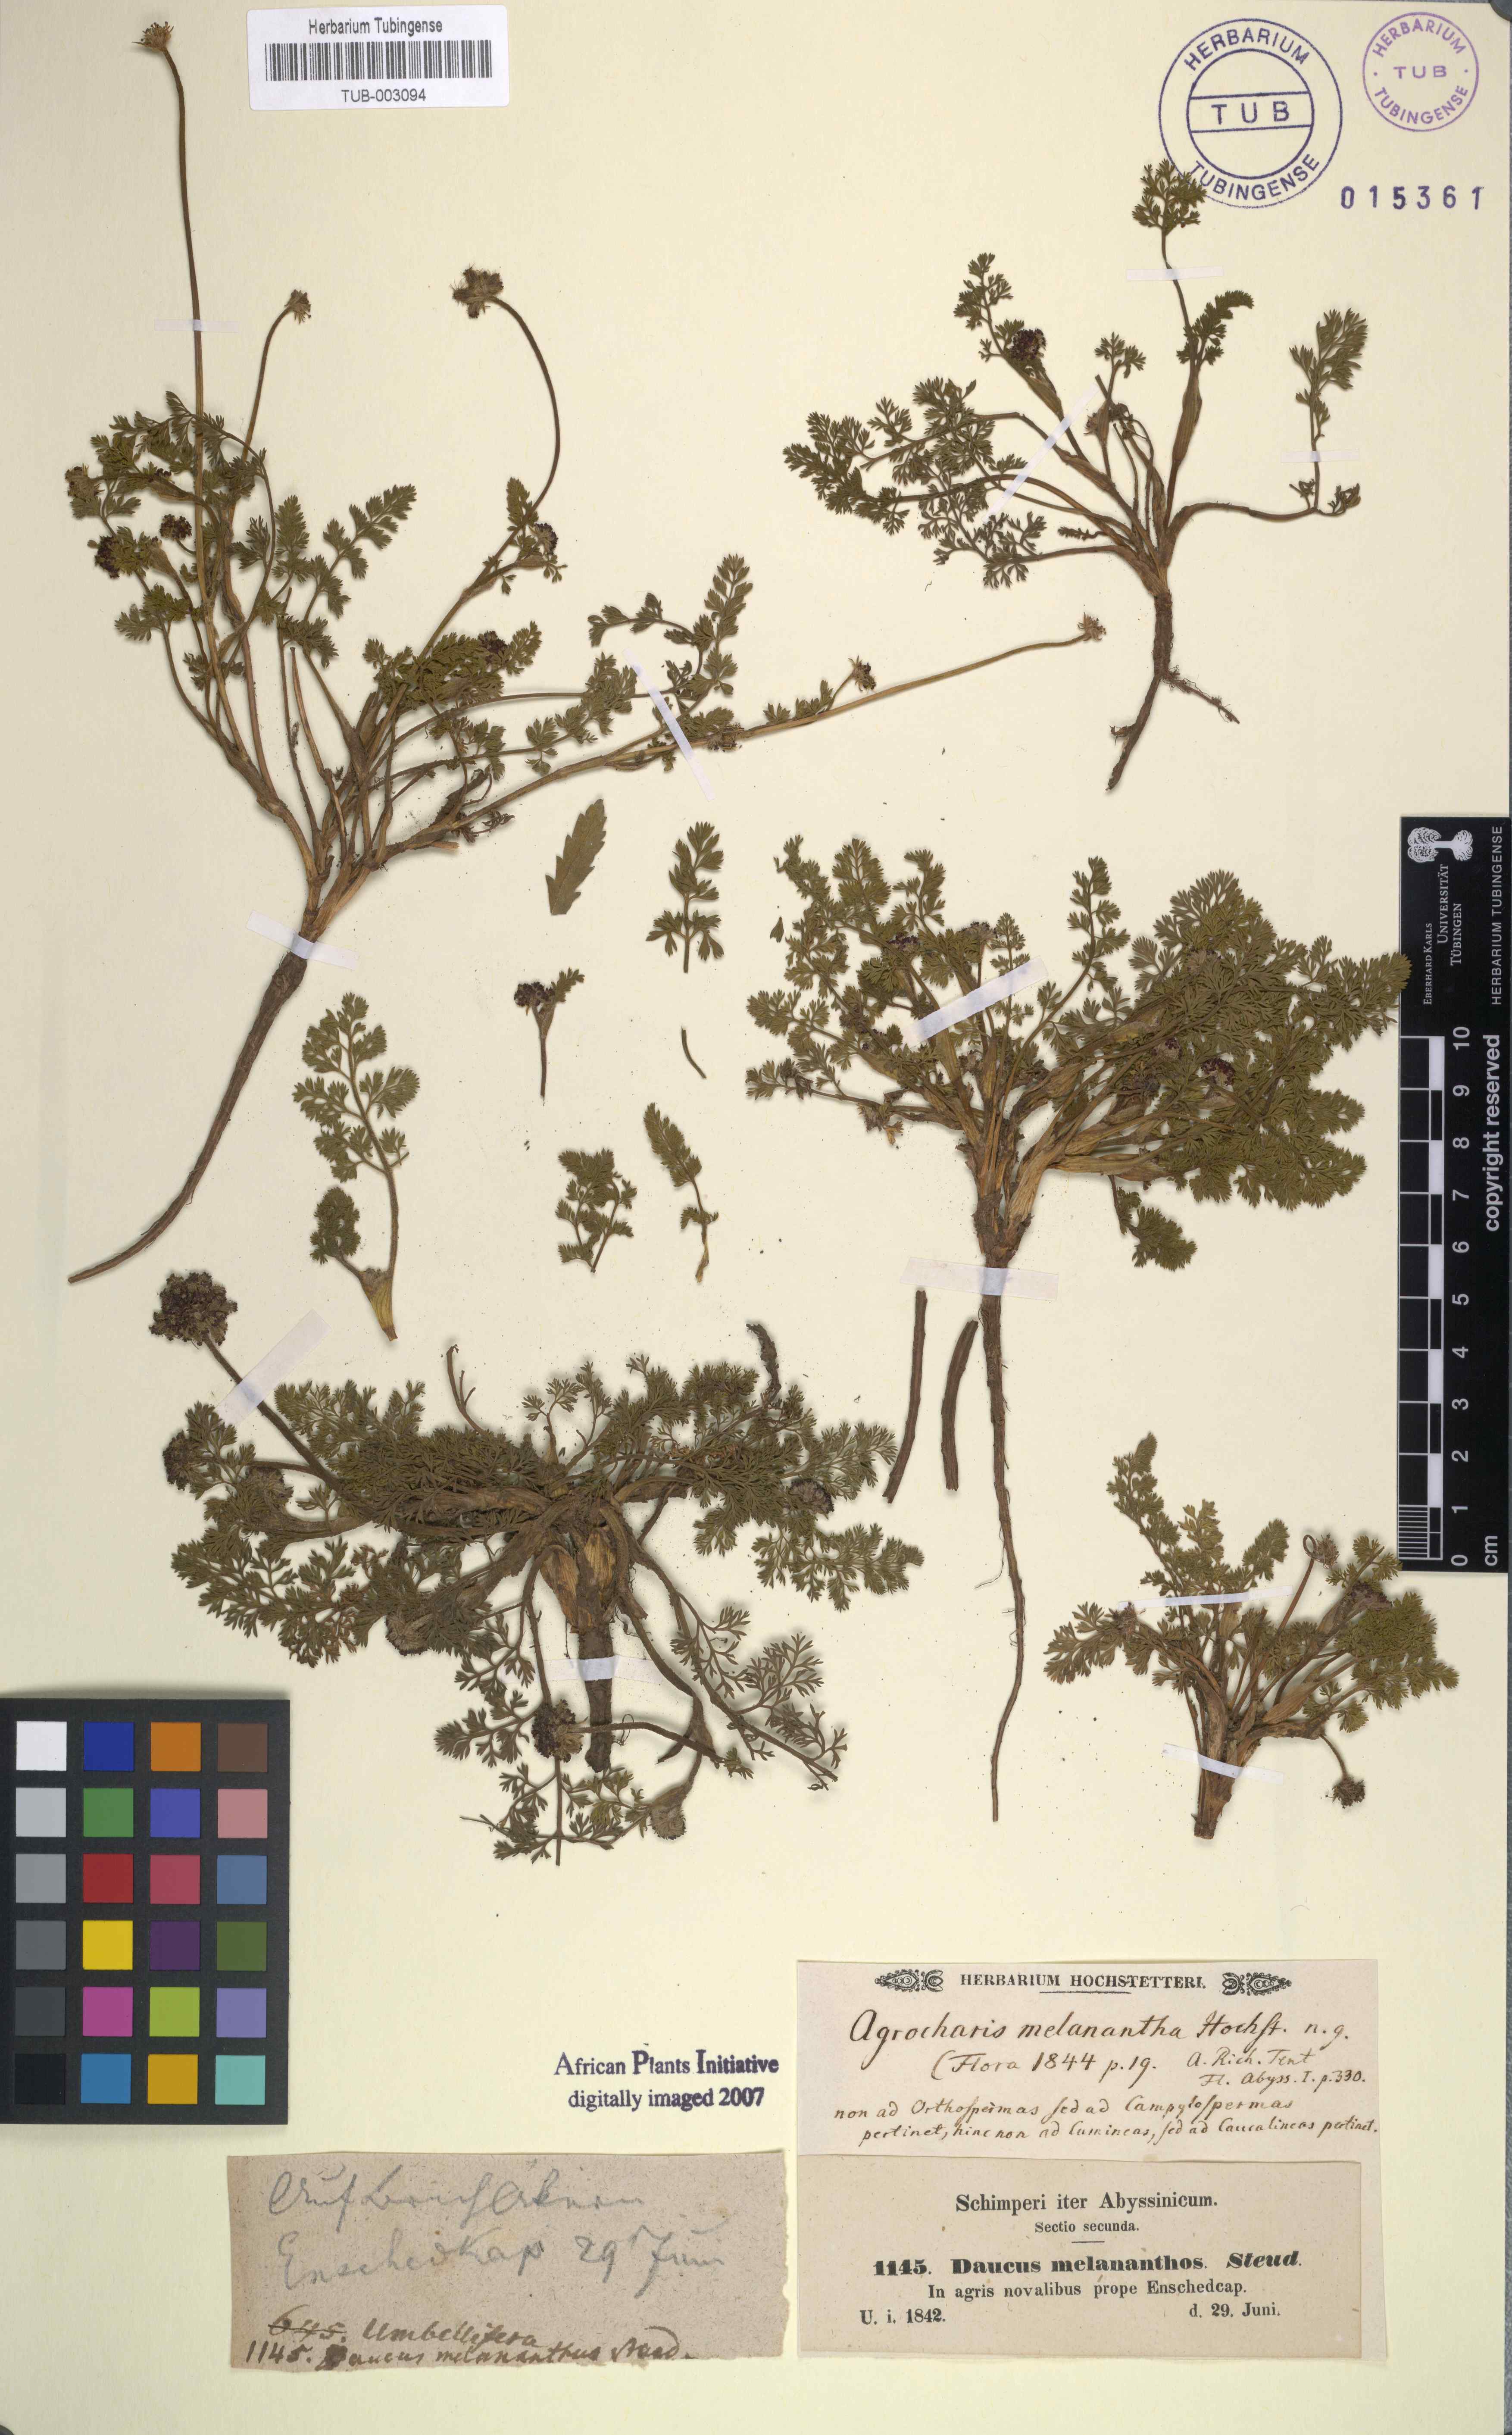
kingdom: Plantae
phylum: Tracheophyta
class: Magnoliopsida
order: Apiales
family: Apiaceae
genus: Daucus
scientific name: Daucus melananthus
